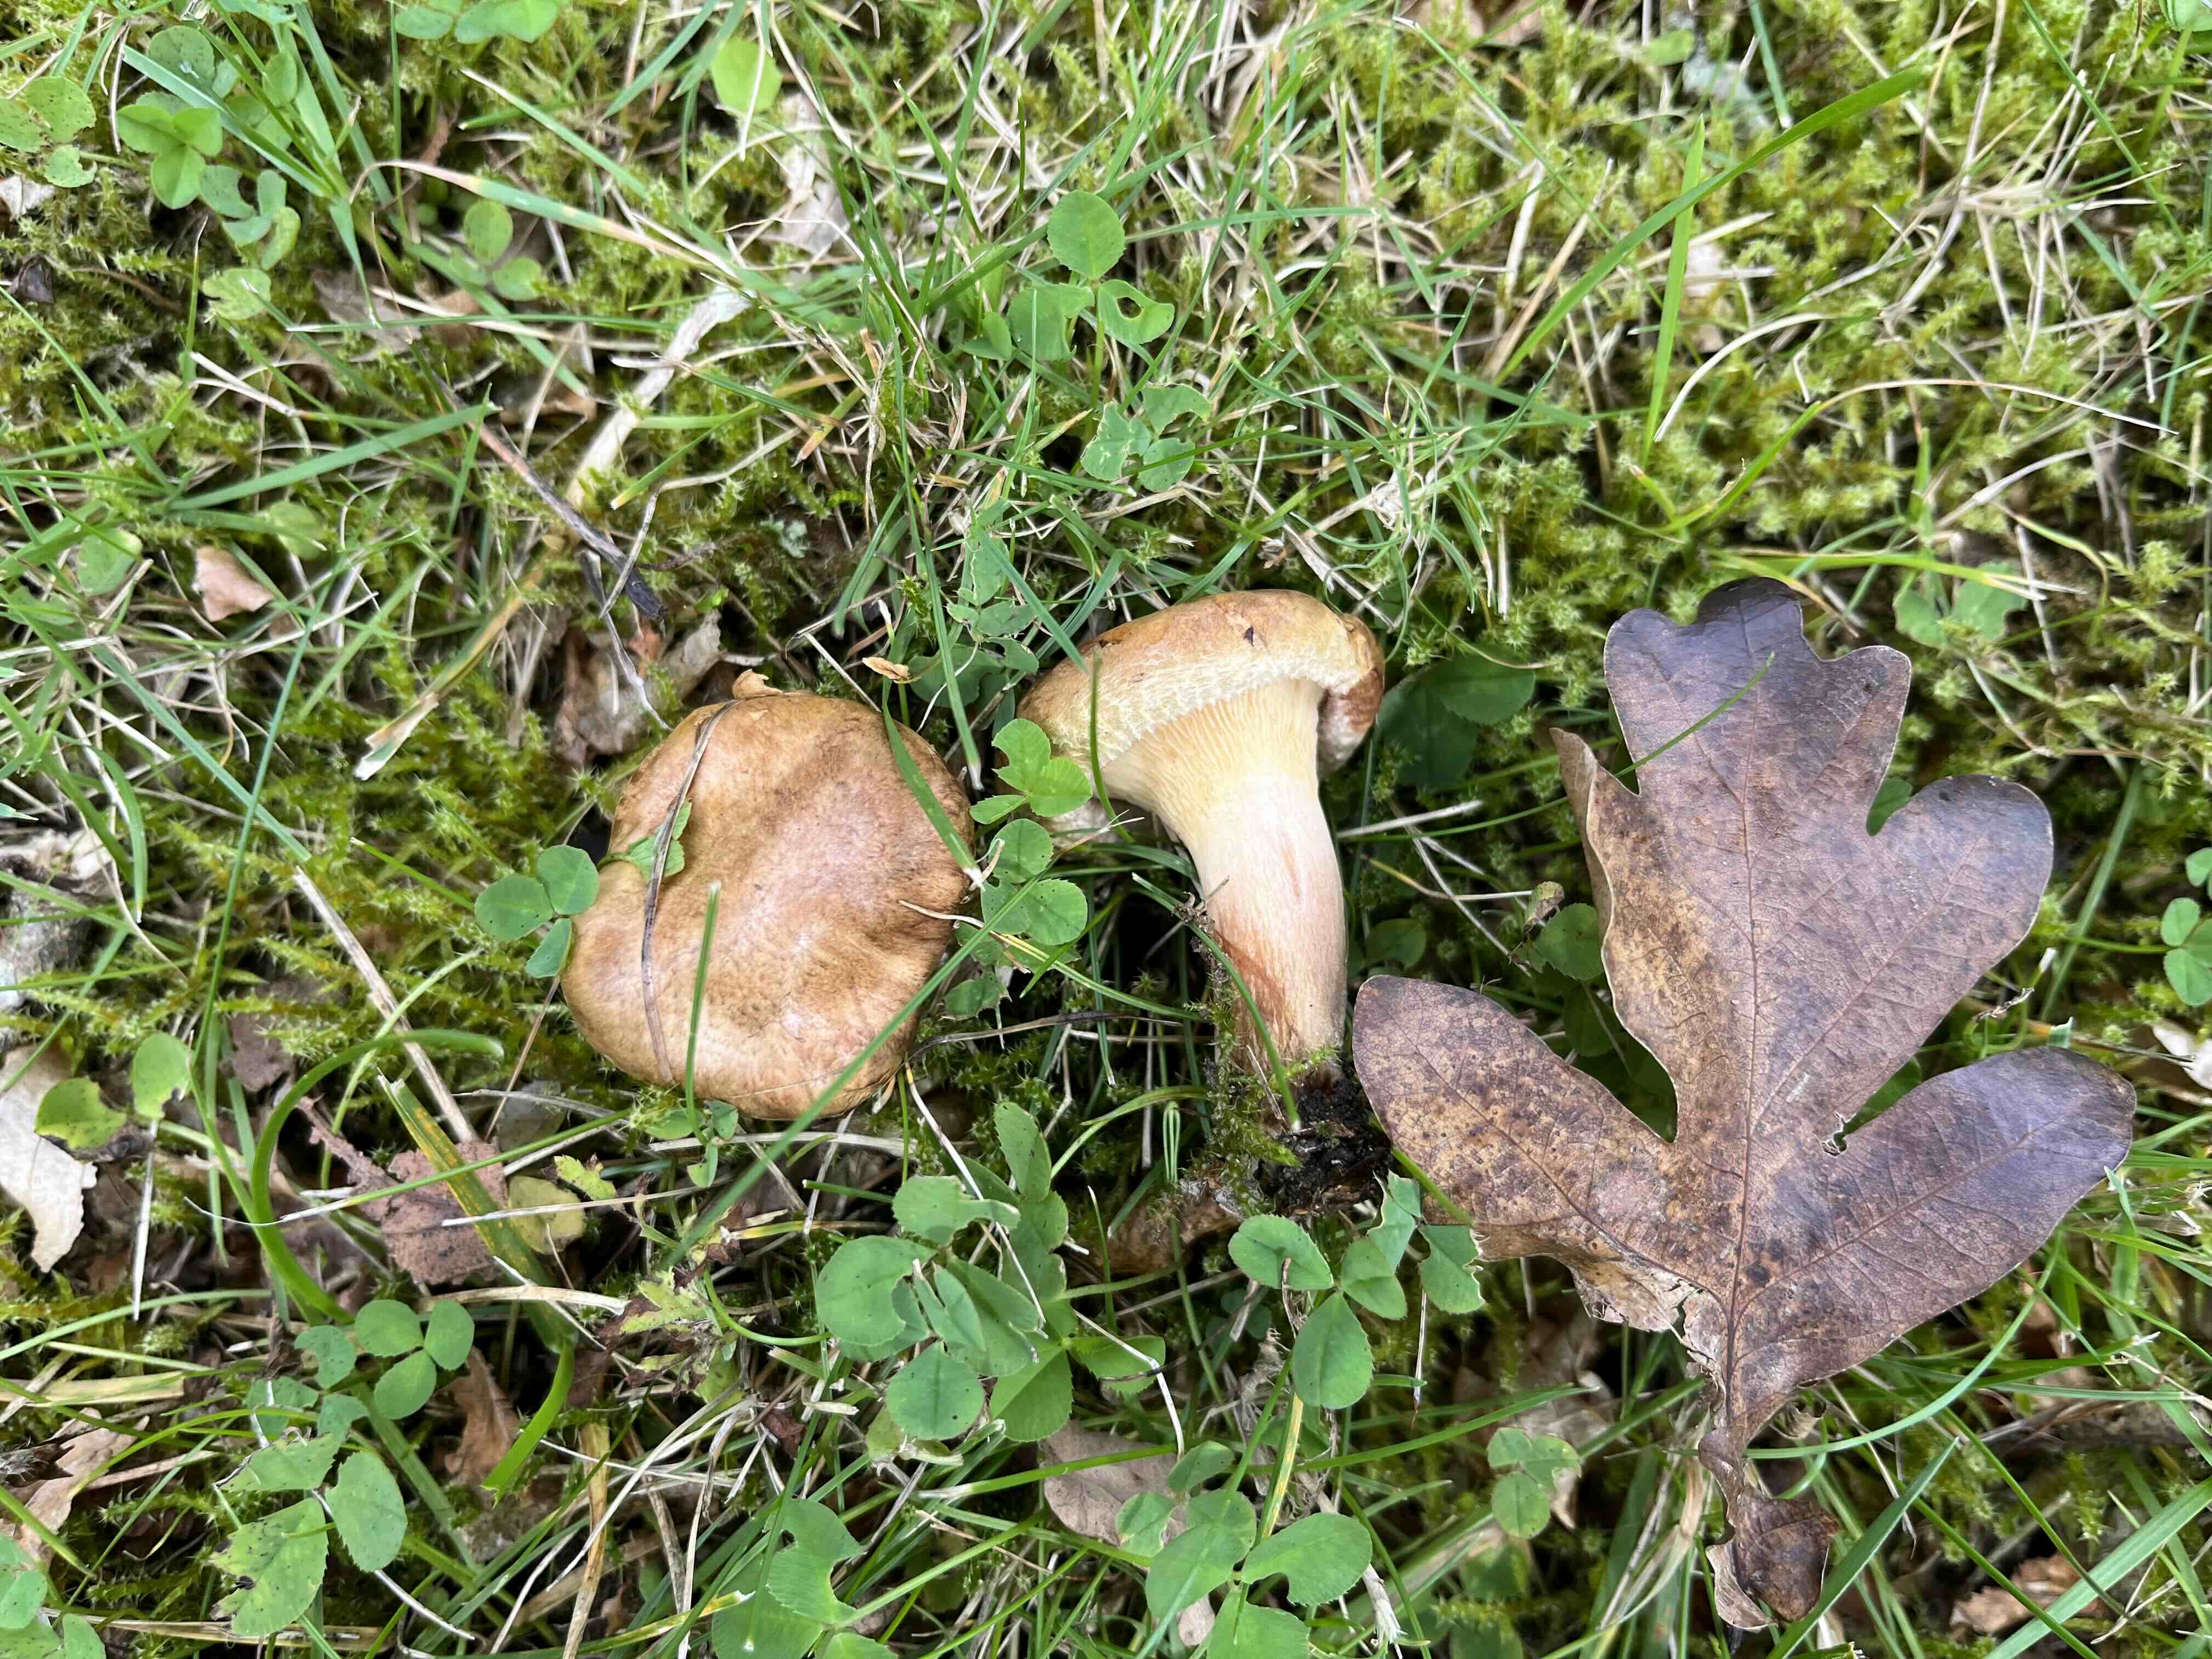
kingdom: Fungi
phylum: Basidiomycota
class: Agaricomycetes
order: Boletales
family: Paxillaceae
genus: Paxillus
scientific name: Paxillus involutus
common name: almindelig netbladhat
